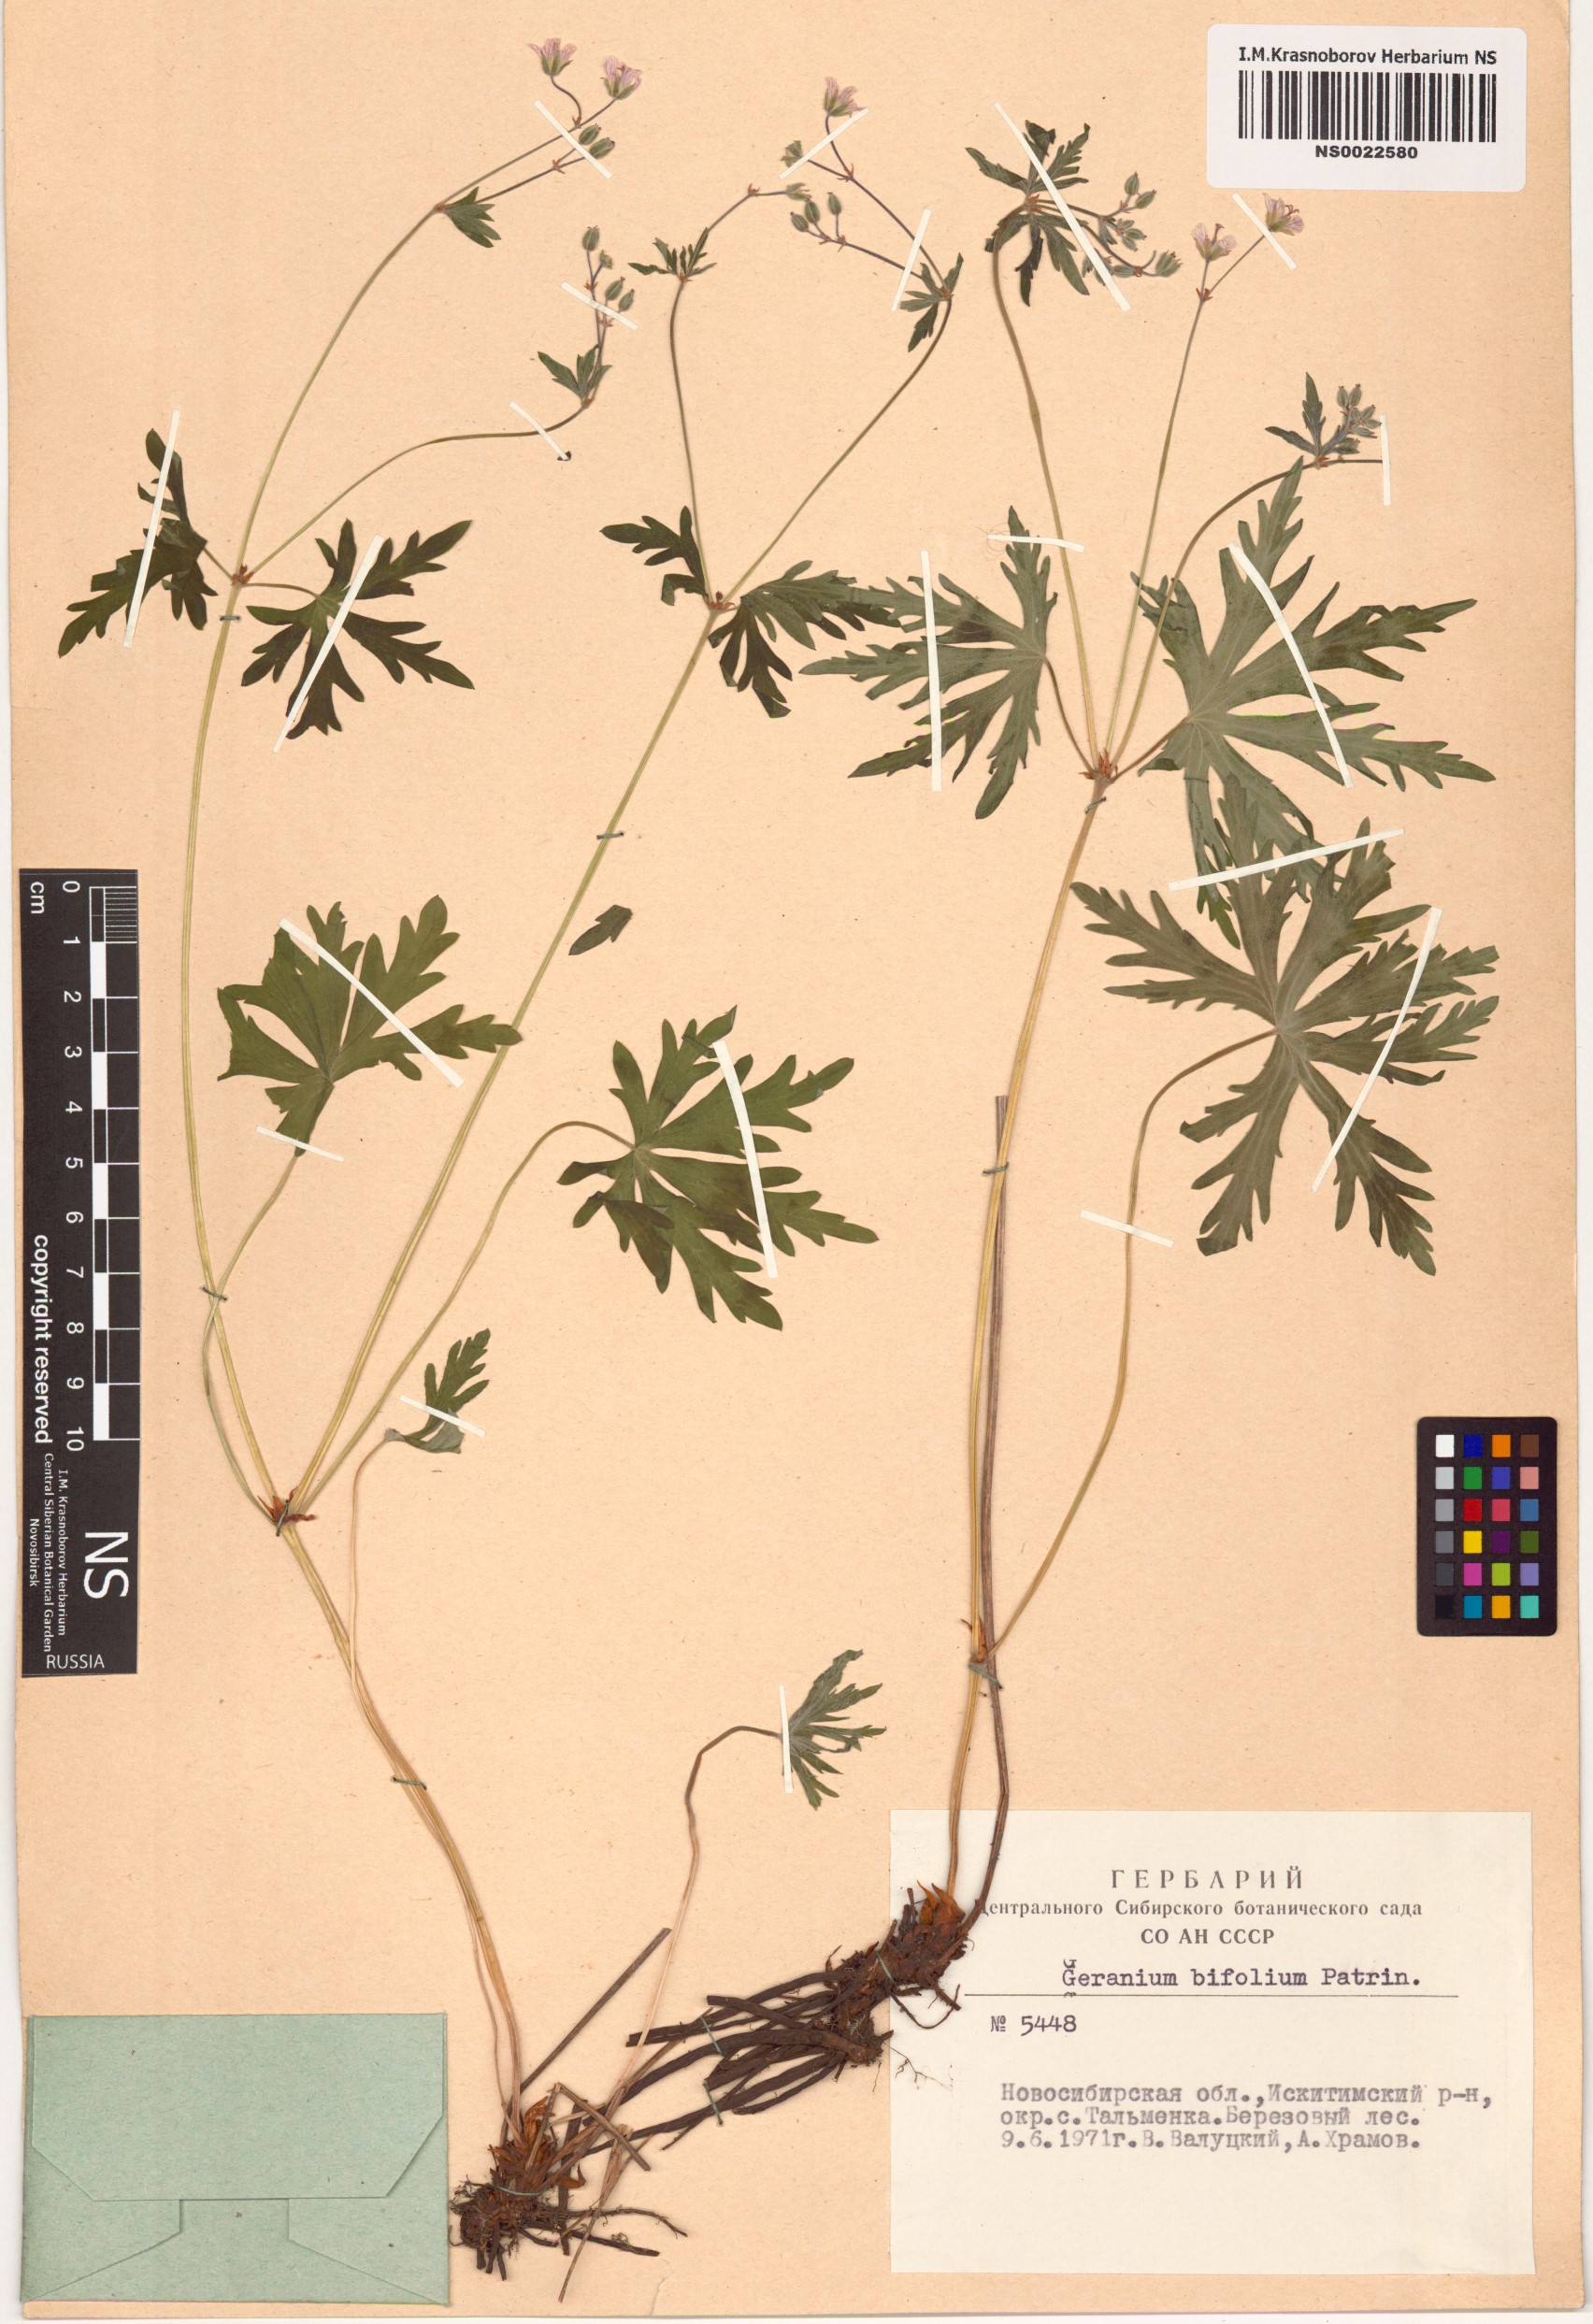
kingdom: Plantae
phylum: Tracheophyta
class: Magnoliopsida
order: Geraniales
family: Geraniaceae
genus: Geranium
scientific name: Geranium pseudosibiricum
